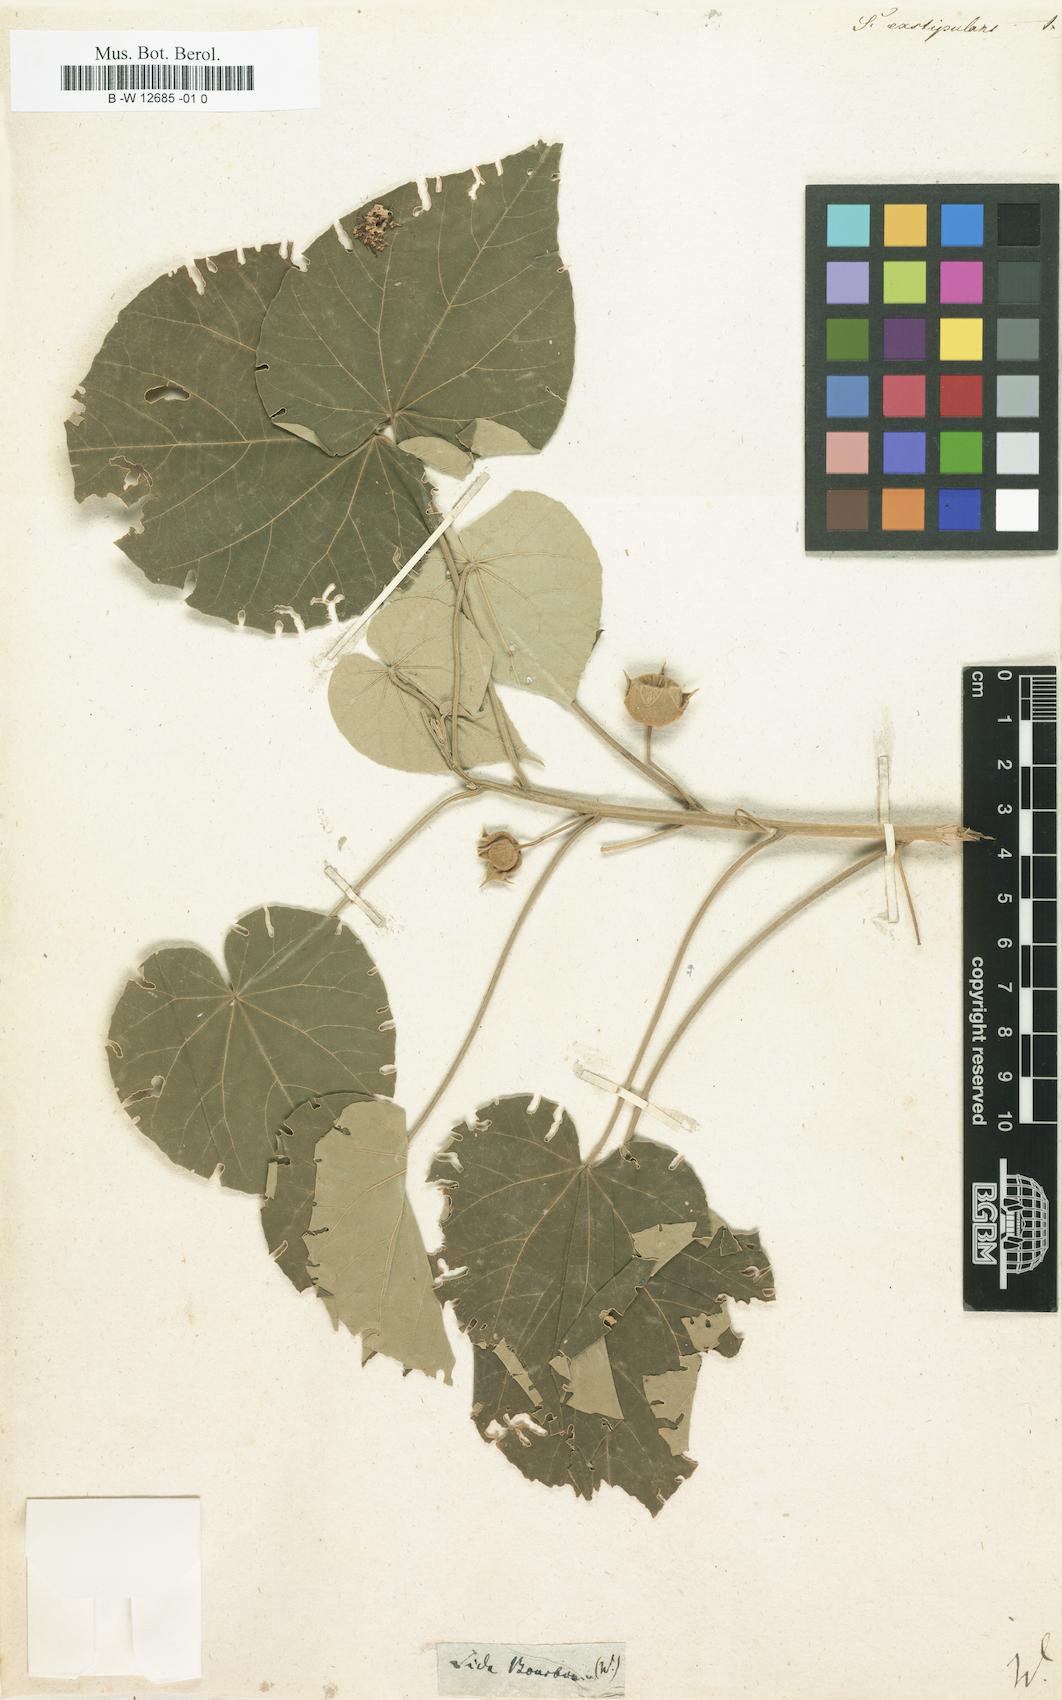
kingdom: Plantae
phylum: Tracheophyta
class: Magnoliopsida
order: Malvales
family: Malvaceae
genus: Abutilon
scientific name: Abutilon exstipulare
